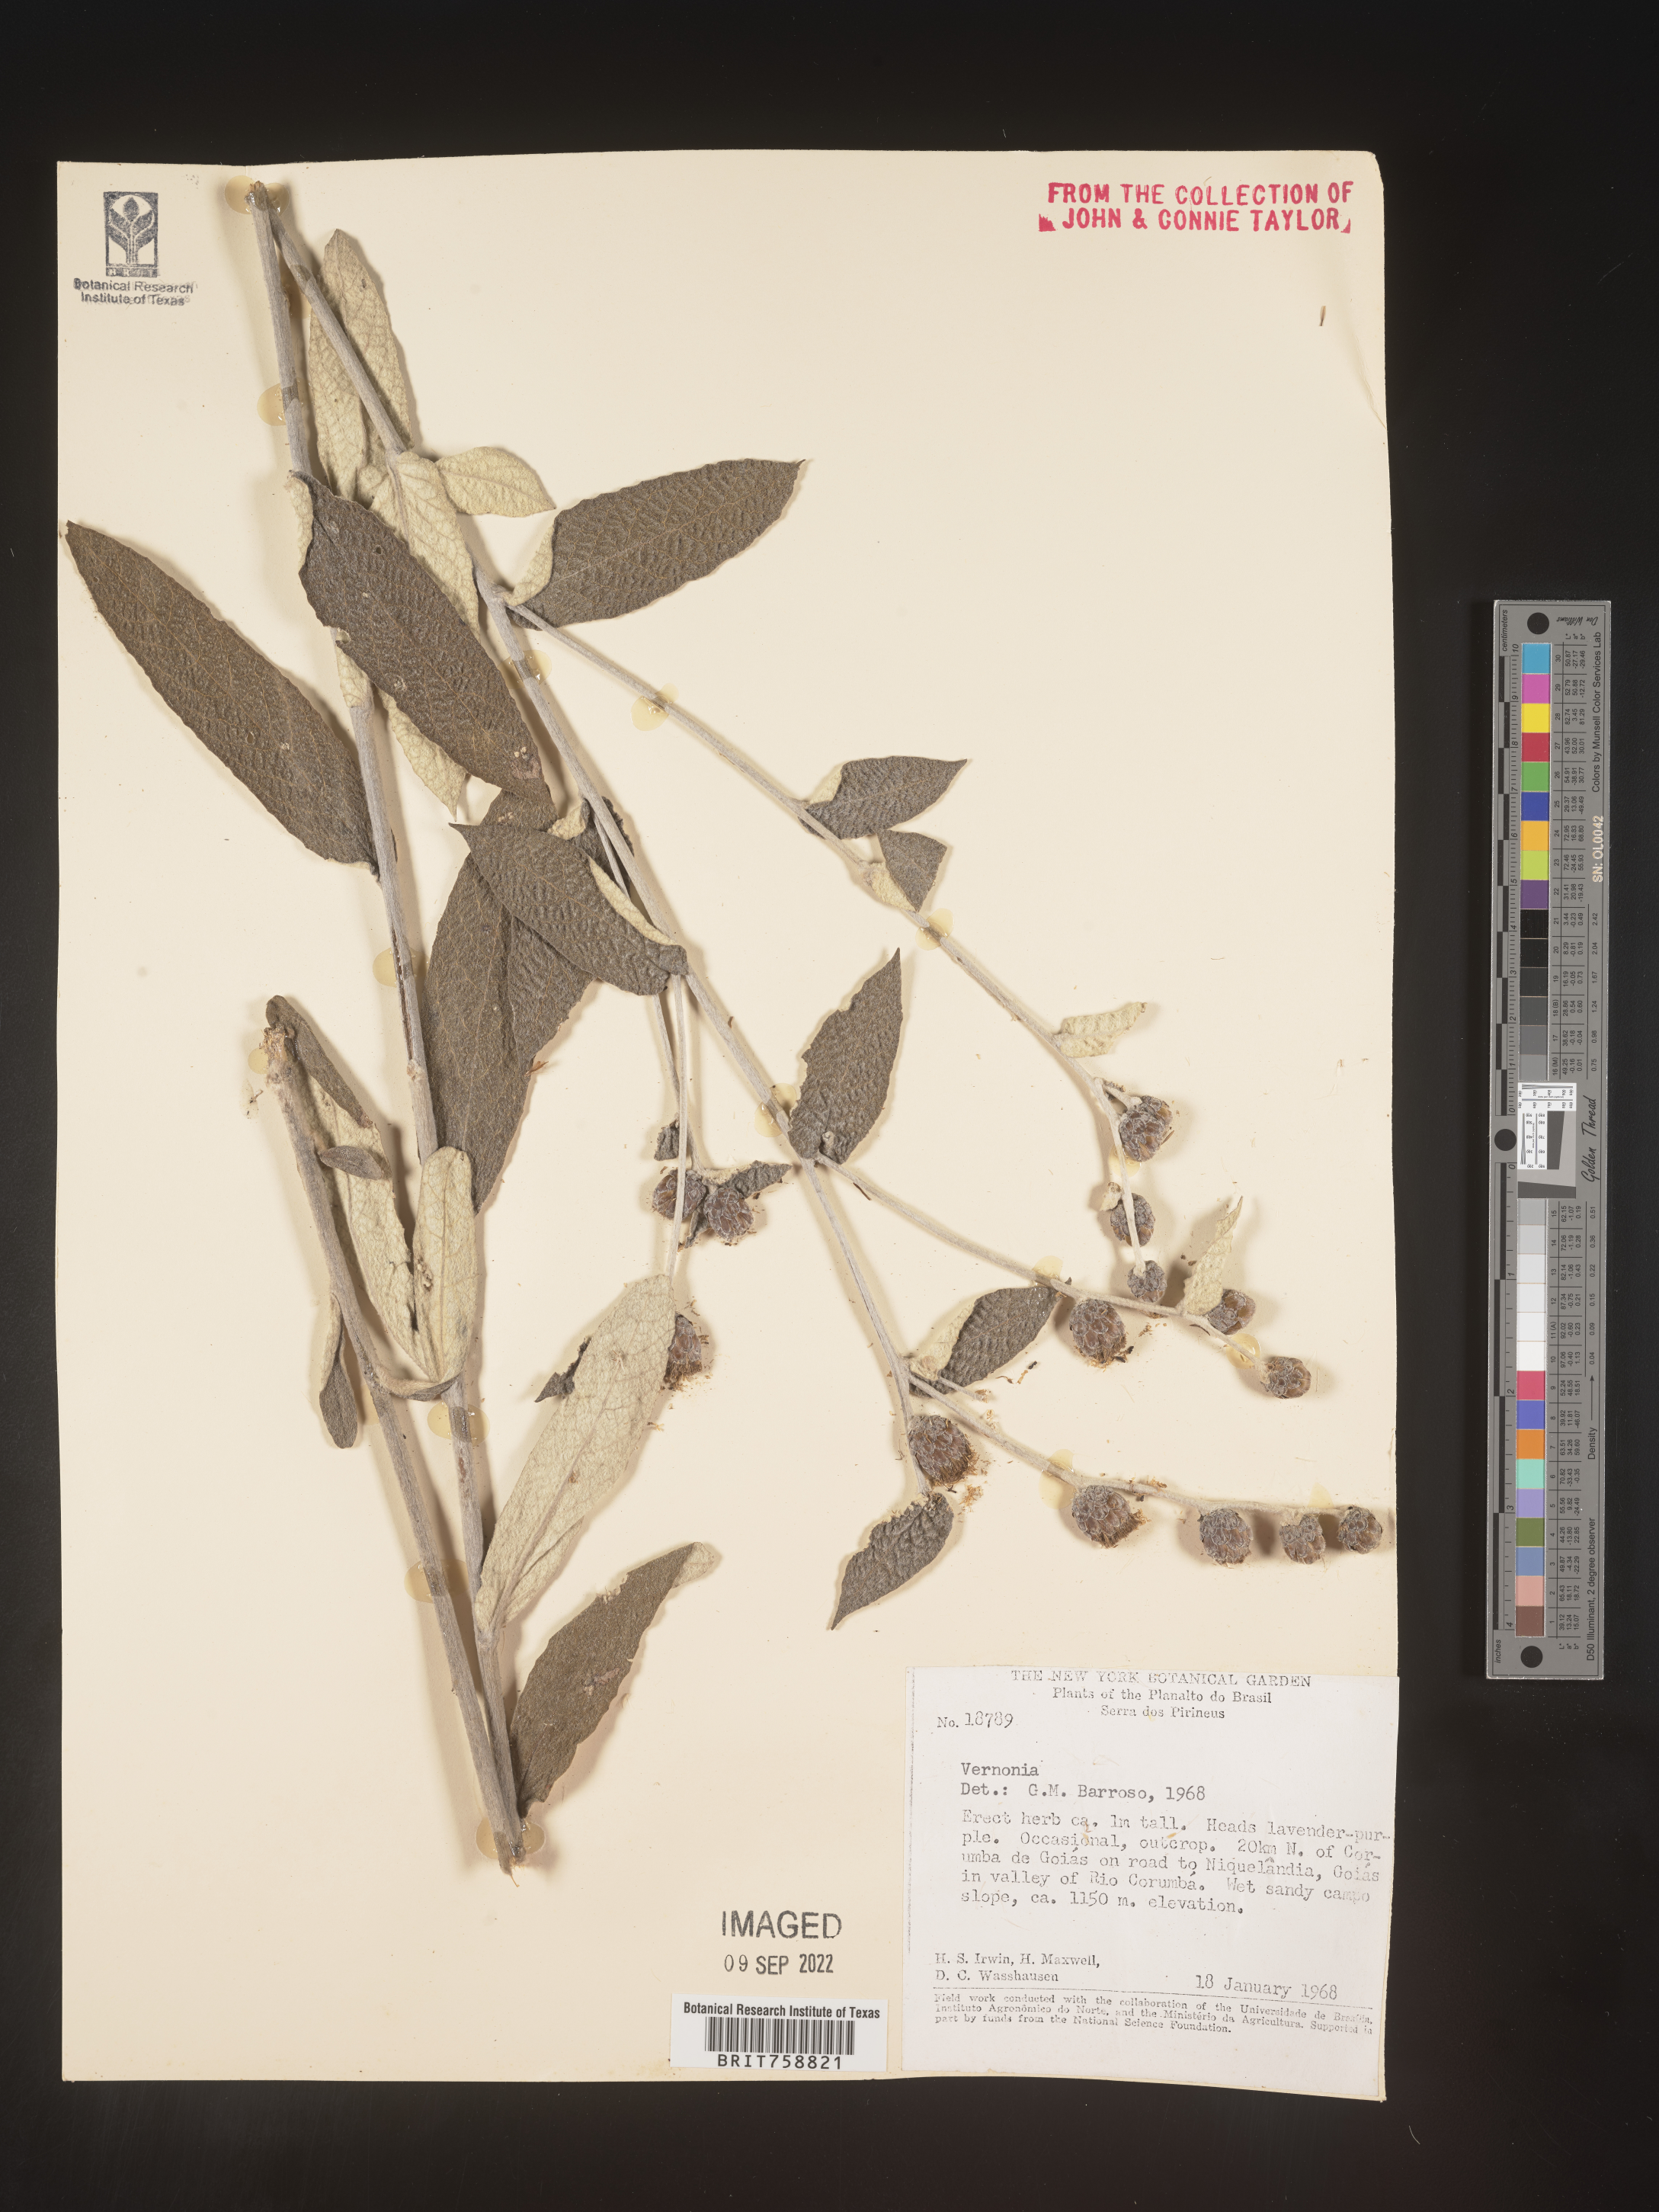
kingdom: Plantae
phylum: Tracheophyta
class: Magnoliopsida
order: Asterales
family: Asteraceae
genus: Vernonia
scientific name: Vernonia
